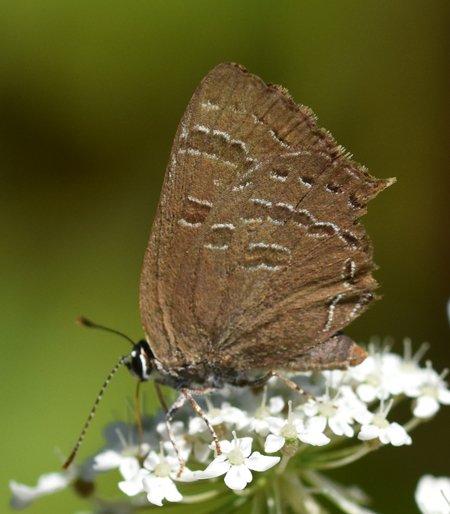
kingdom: Animalia
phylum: Arthropoda
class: Insecta
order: Lepidoptera
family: Lycaenidae
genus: Satyrium
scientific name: Satyrium calanus
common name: Banded Hairstreak
